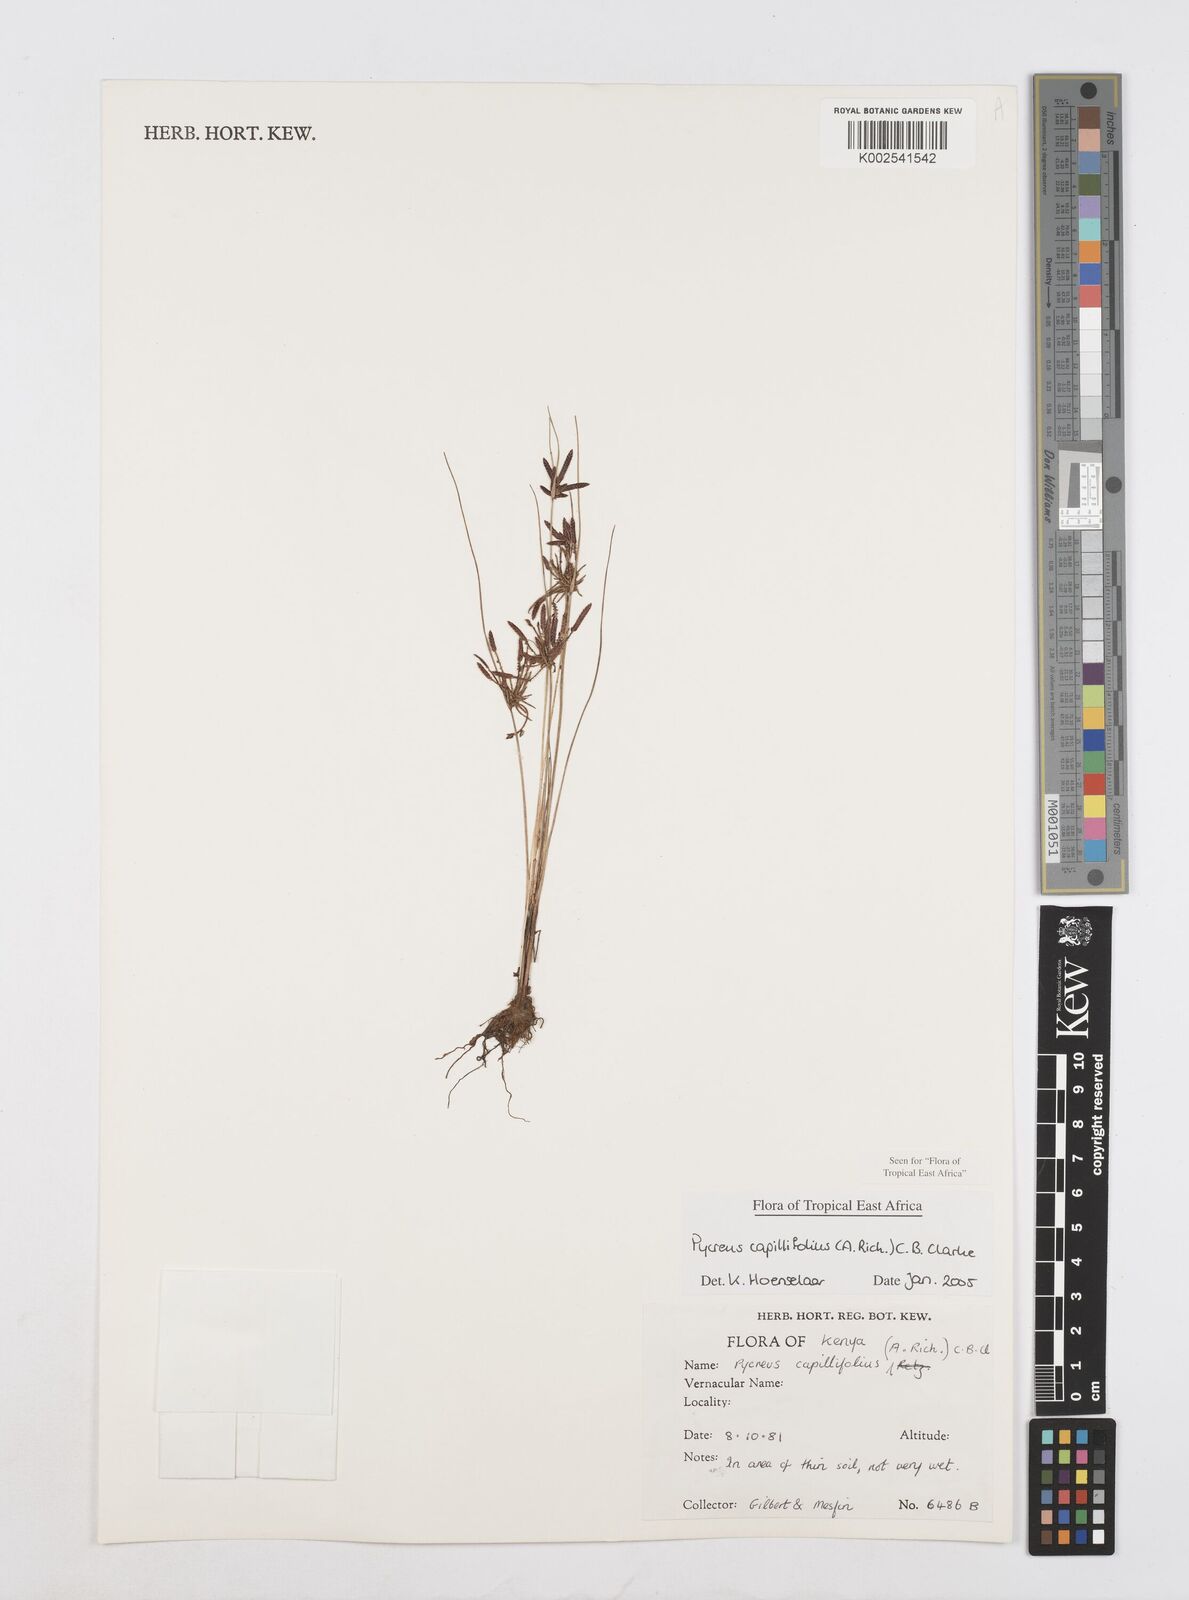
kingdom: Plantae
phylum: Tracheophyta
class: Liliopsida
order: Poales
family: Cyperaceae
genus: Cyperus
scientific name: Cyperus capillifolius
